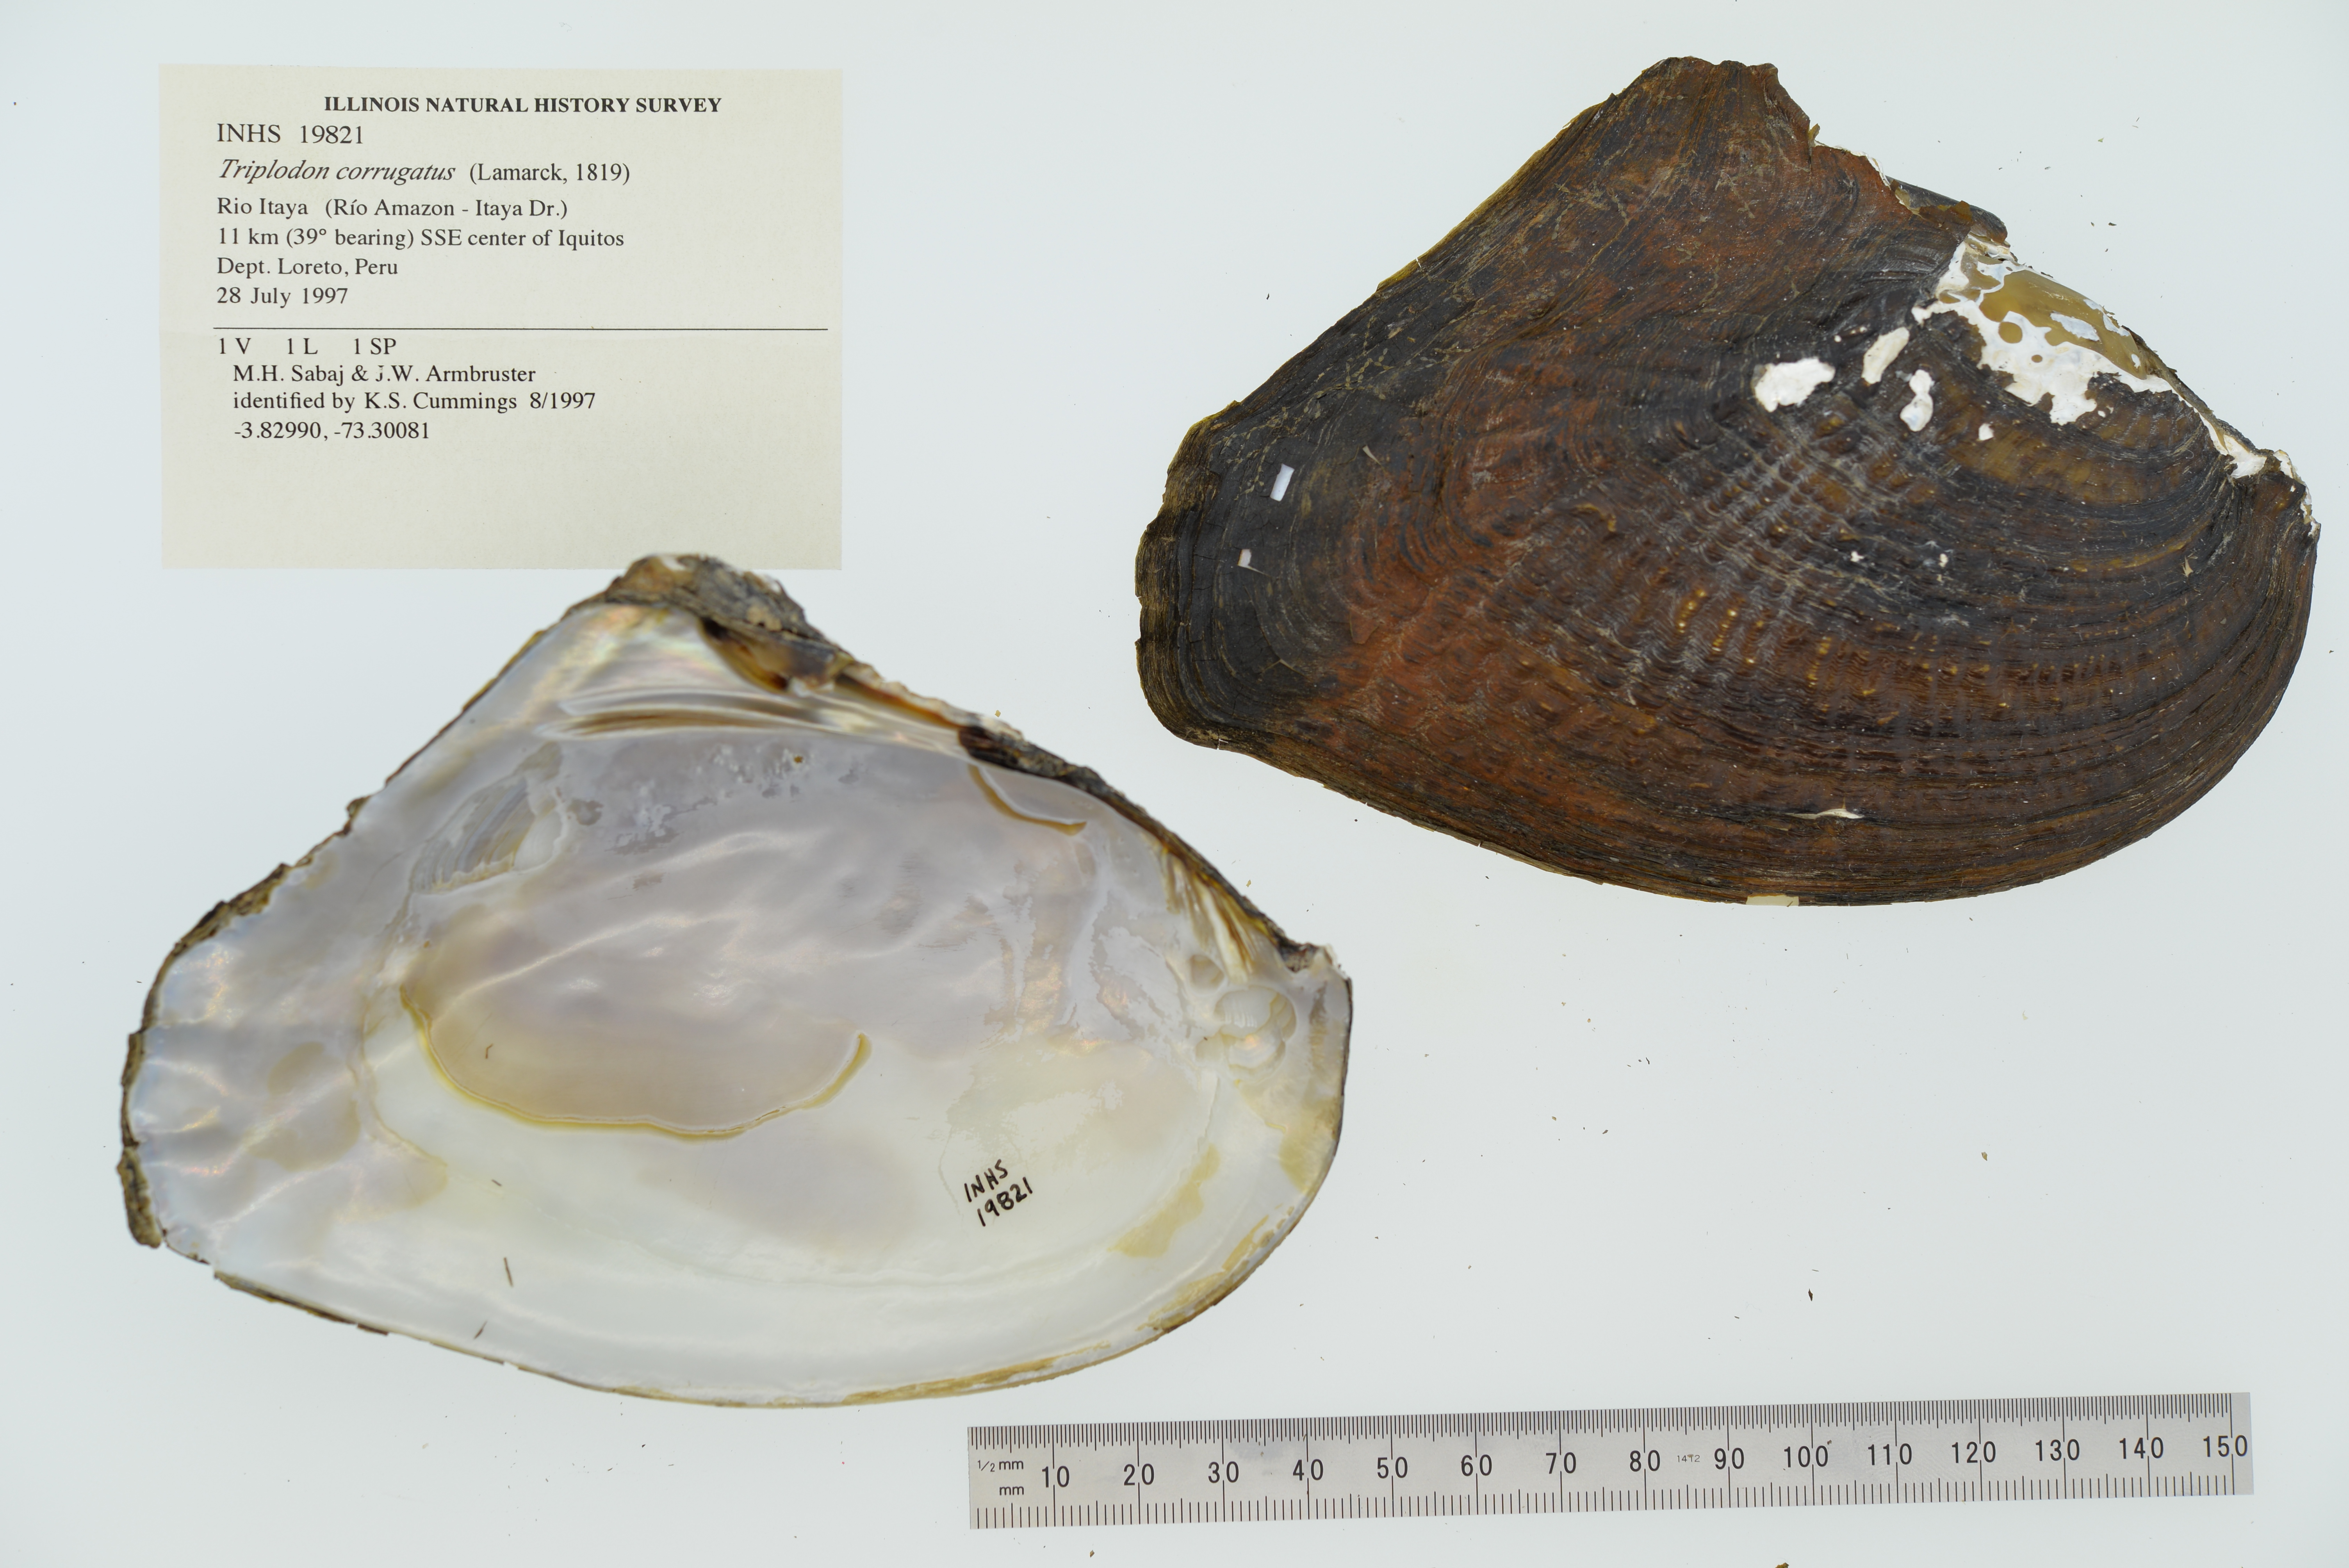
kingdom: Animalia
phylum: Mollusca
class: Bivalvia
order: Unionida
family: Hyriidae
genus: Triplodon
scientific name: Triplodon corrugatus
